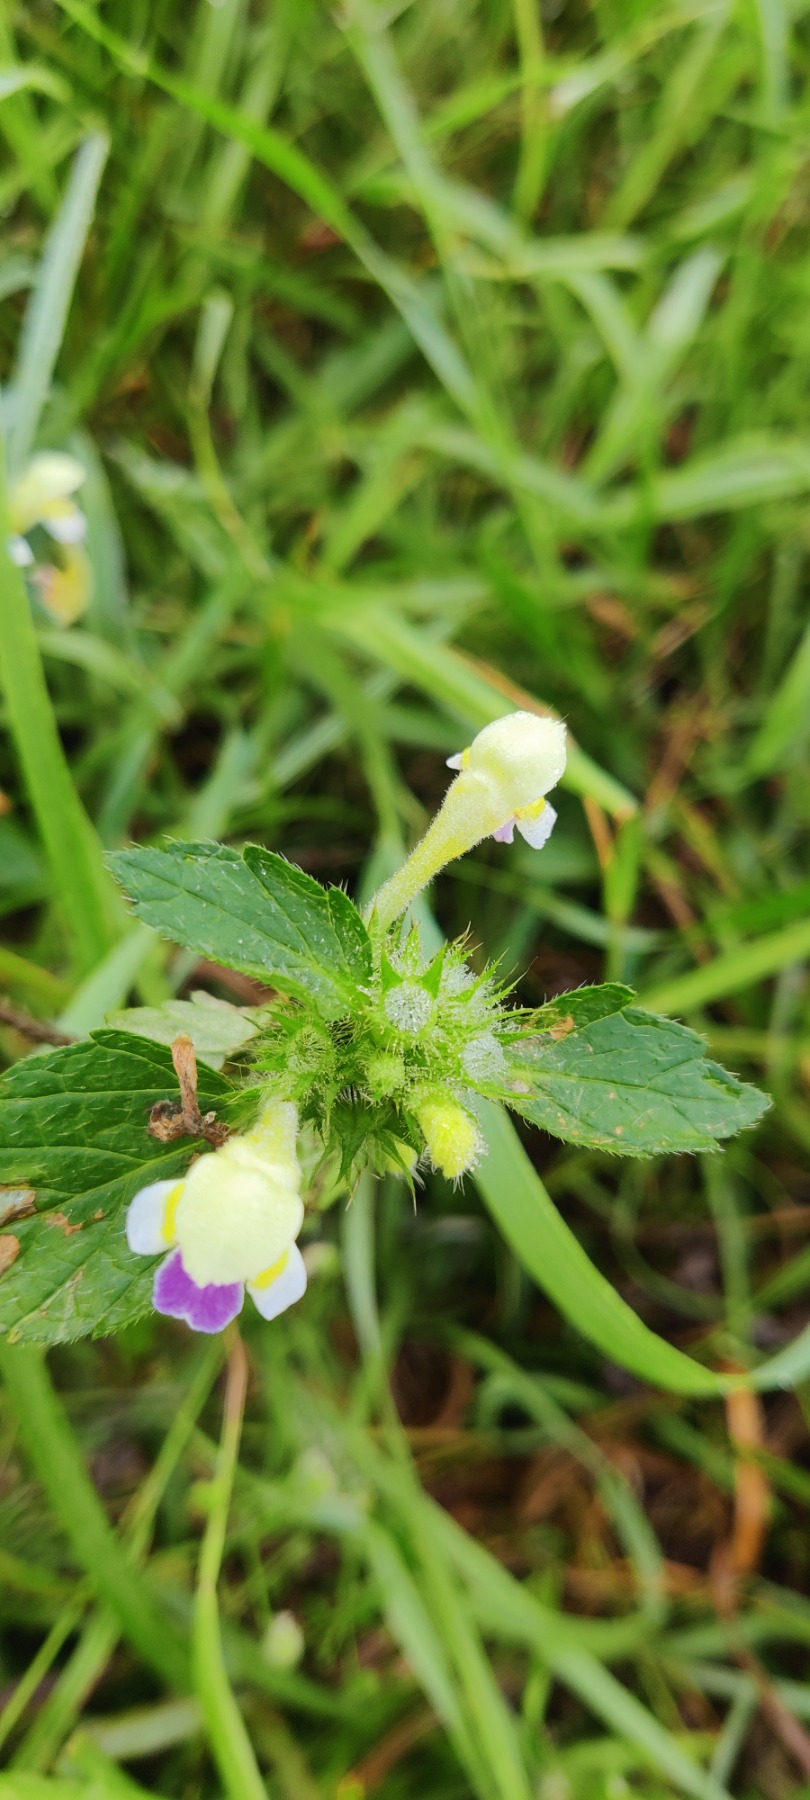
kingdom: Plantae
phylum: Tracheophyta
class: Magnoliopsida
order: Lamiales
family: Lamiaceae
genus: Galeopsis
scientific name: Galeopsis speciosa
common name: Hamp-hanekro
